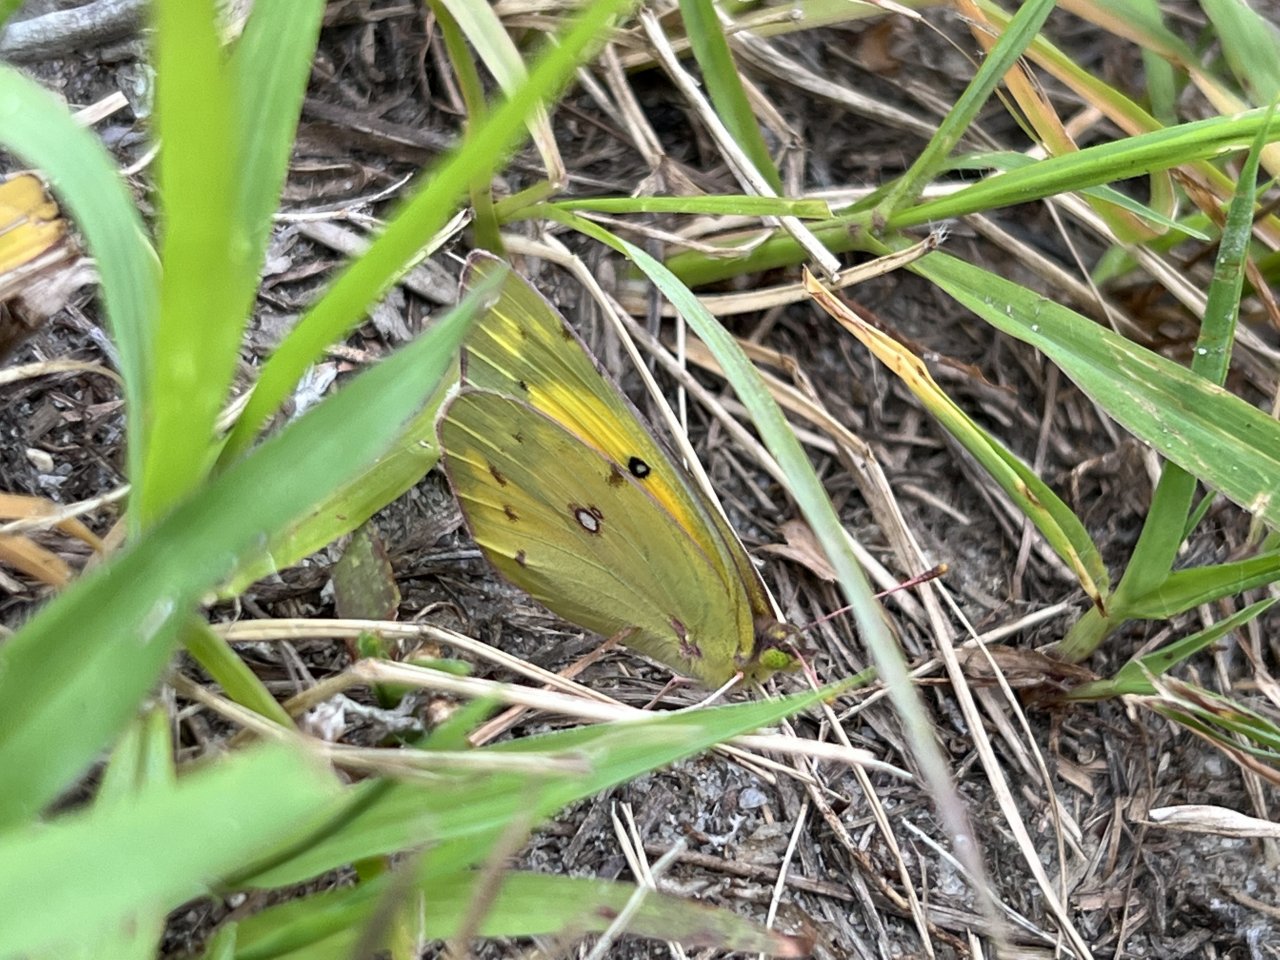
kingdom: Animalia
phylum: Arthropoda
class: Insecta
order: Lepidoptera
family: Pieridae
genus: Colias
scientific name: Colias eurytheme
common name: Orange Sulphur
